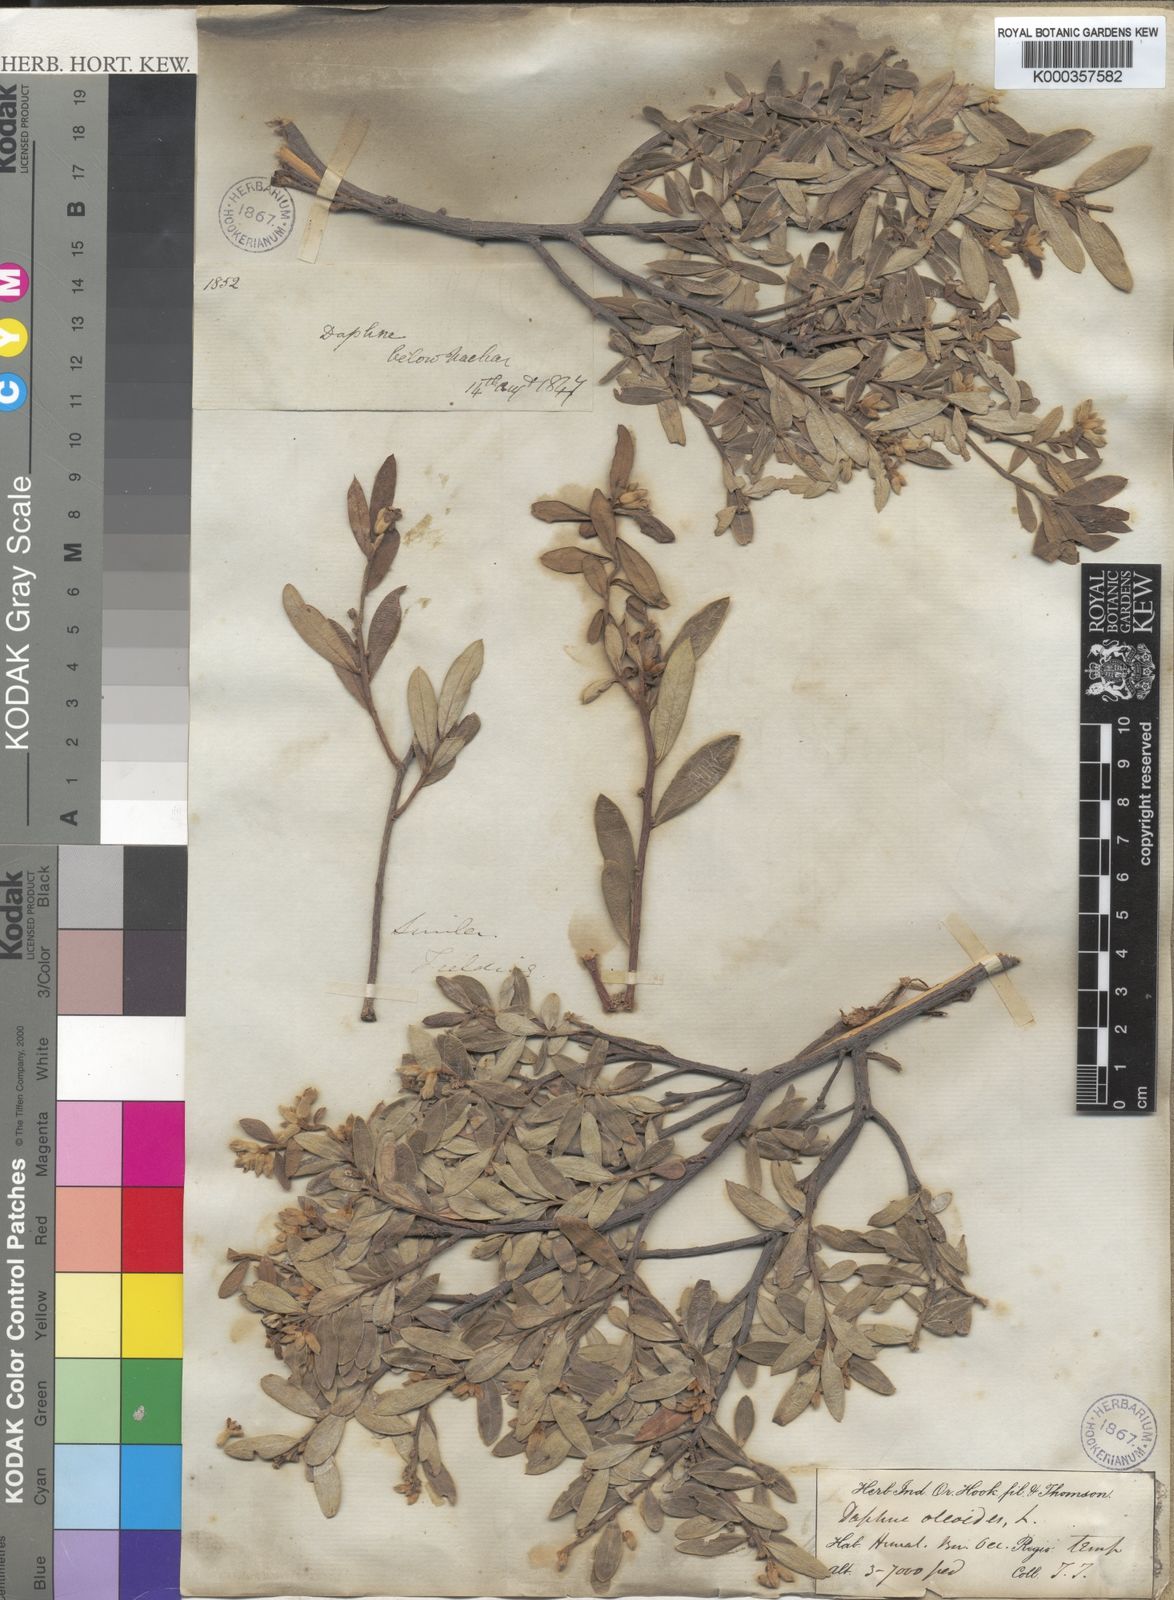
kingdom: Plantae
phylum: Tracheophyta
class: Magnoliopsida
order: Malvales
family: Thymelaeaceae
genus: Daphne
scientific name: Daphne oleoides
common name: Spurge-olive
